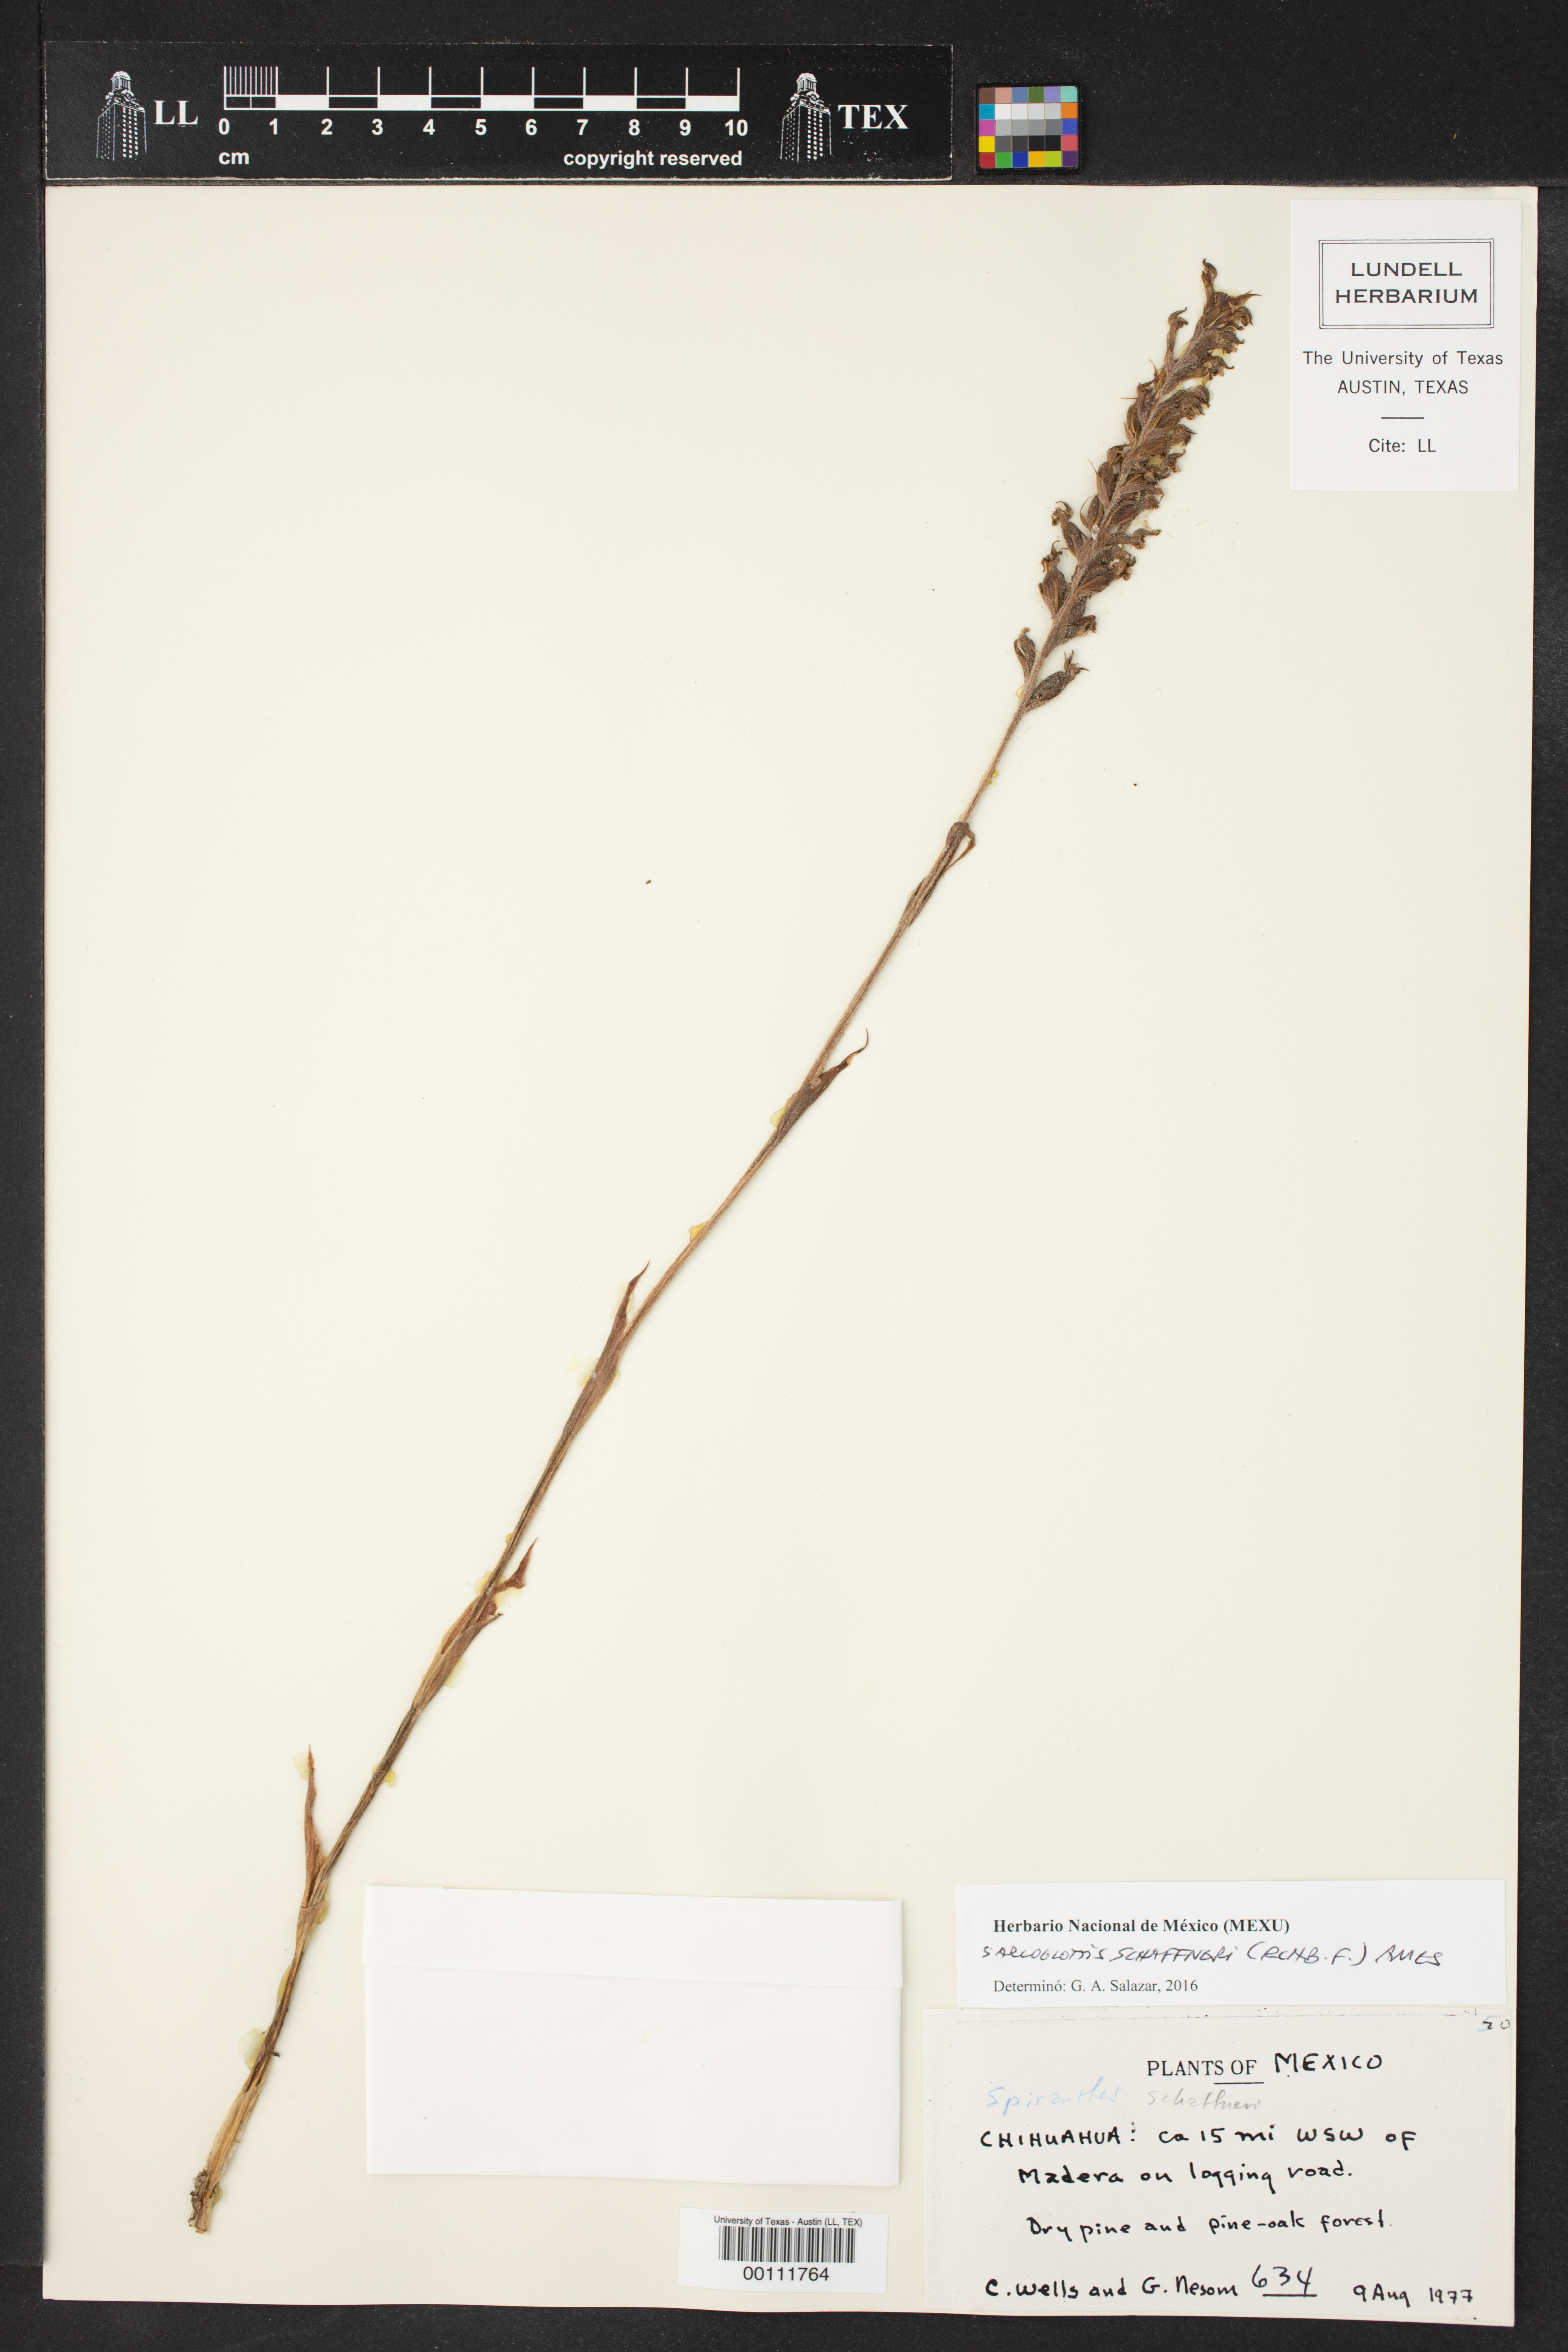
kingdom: Plantae
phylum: Tracheophyta
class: Liliopsida
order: Asparagales
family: Orchidaceae
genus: Sarcoglottis
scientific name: Sarcoglottis schaffneri
